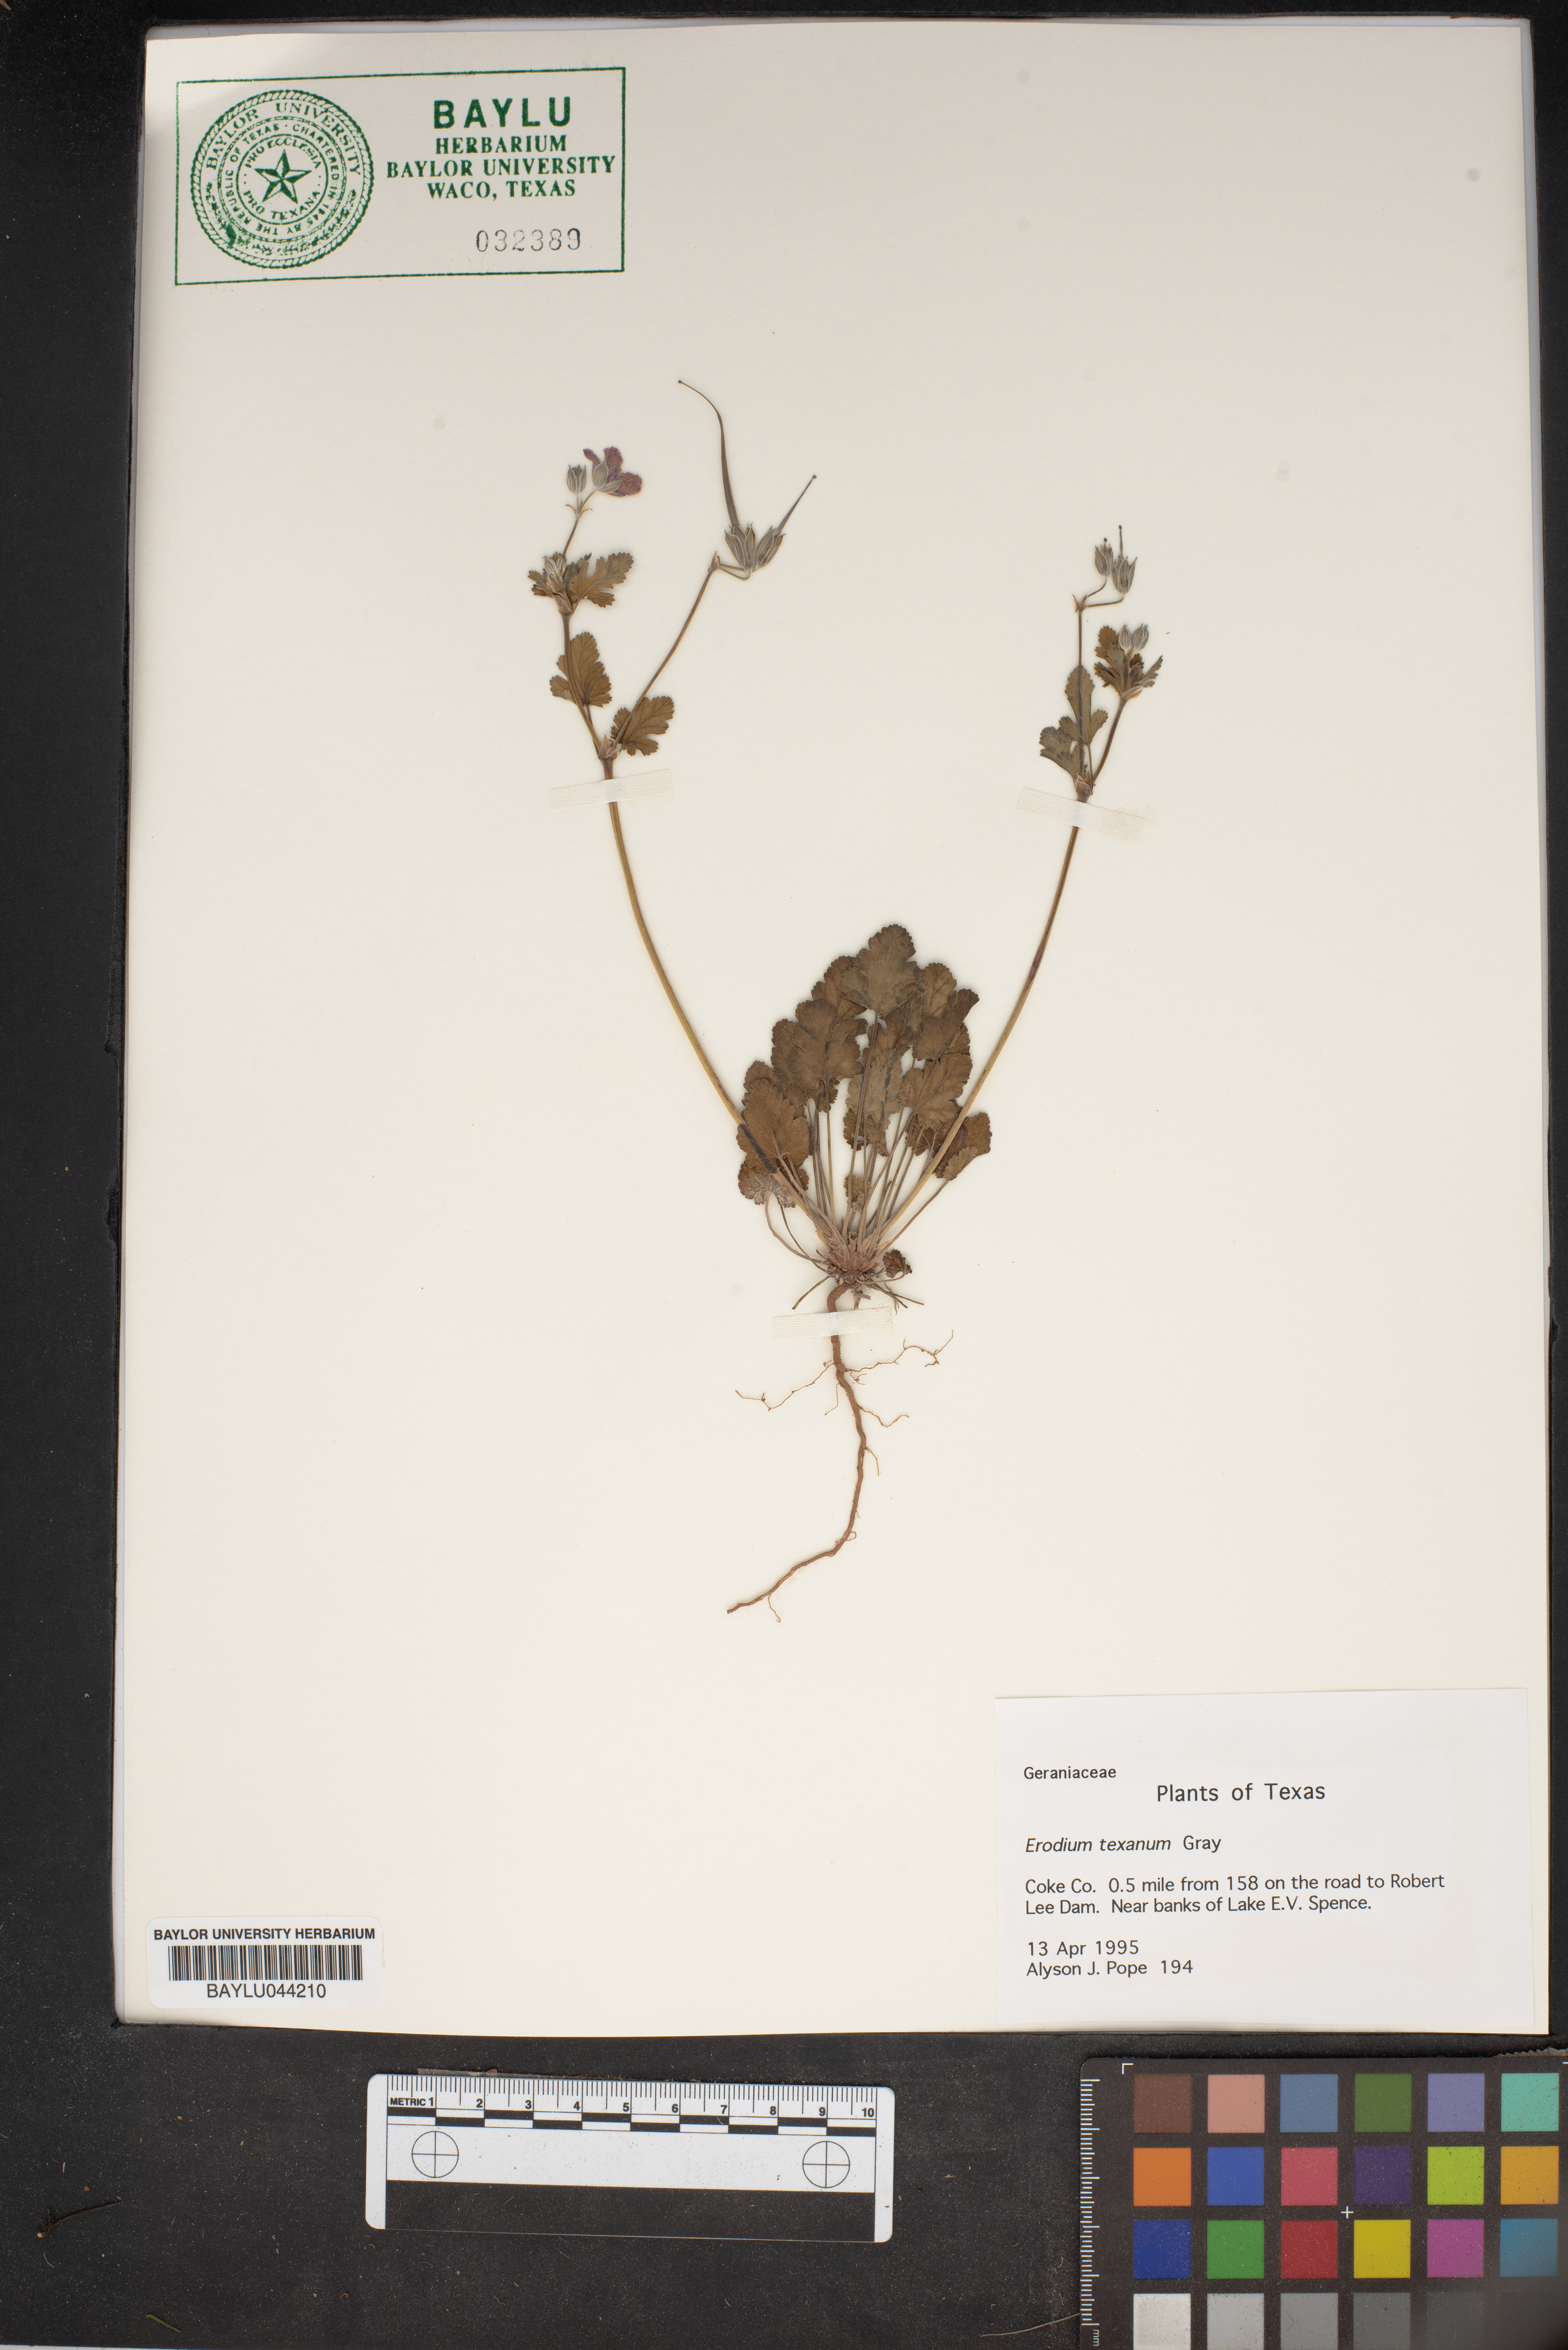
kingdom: Plantae
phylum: Tracheophyta
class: Magnoliopsida
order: Geraniales
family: Geraniaceae
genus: Erodium
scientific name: Erodium texanum
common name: Texas stork's-bill
